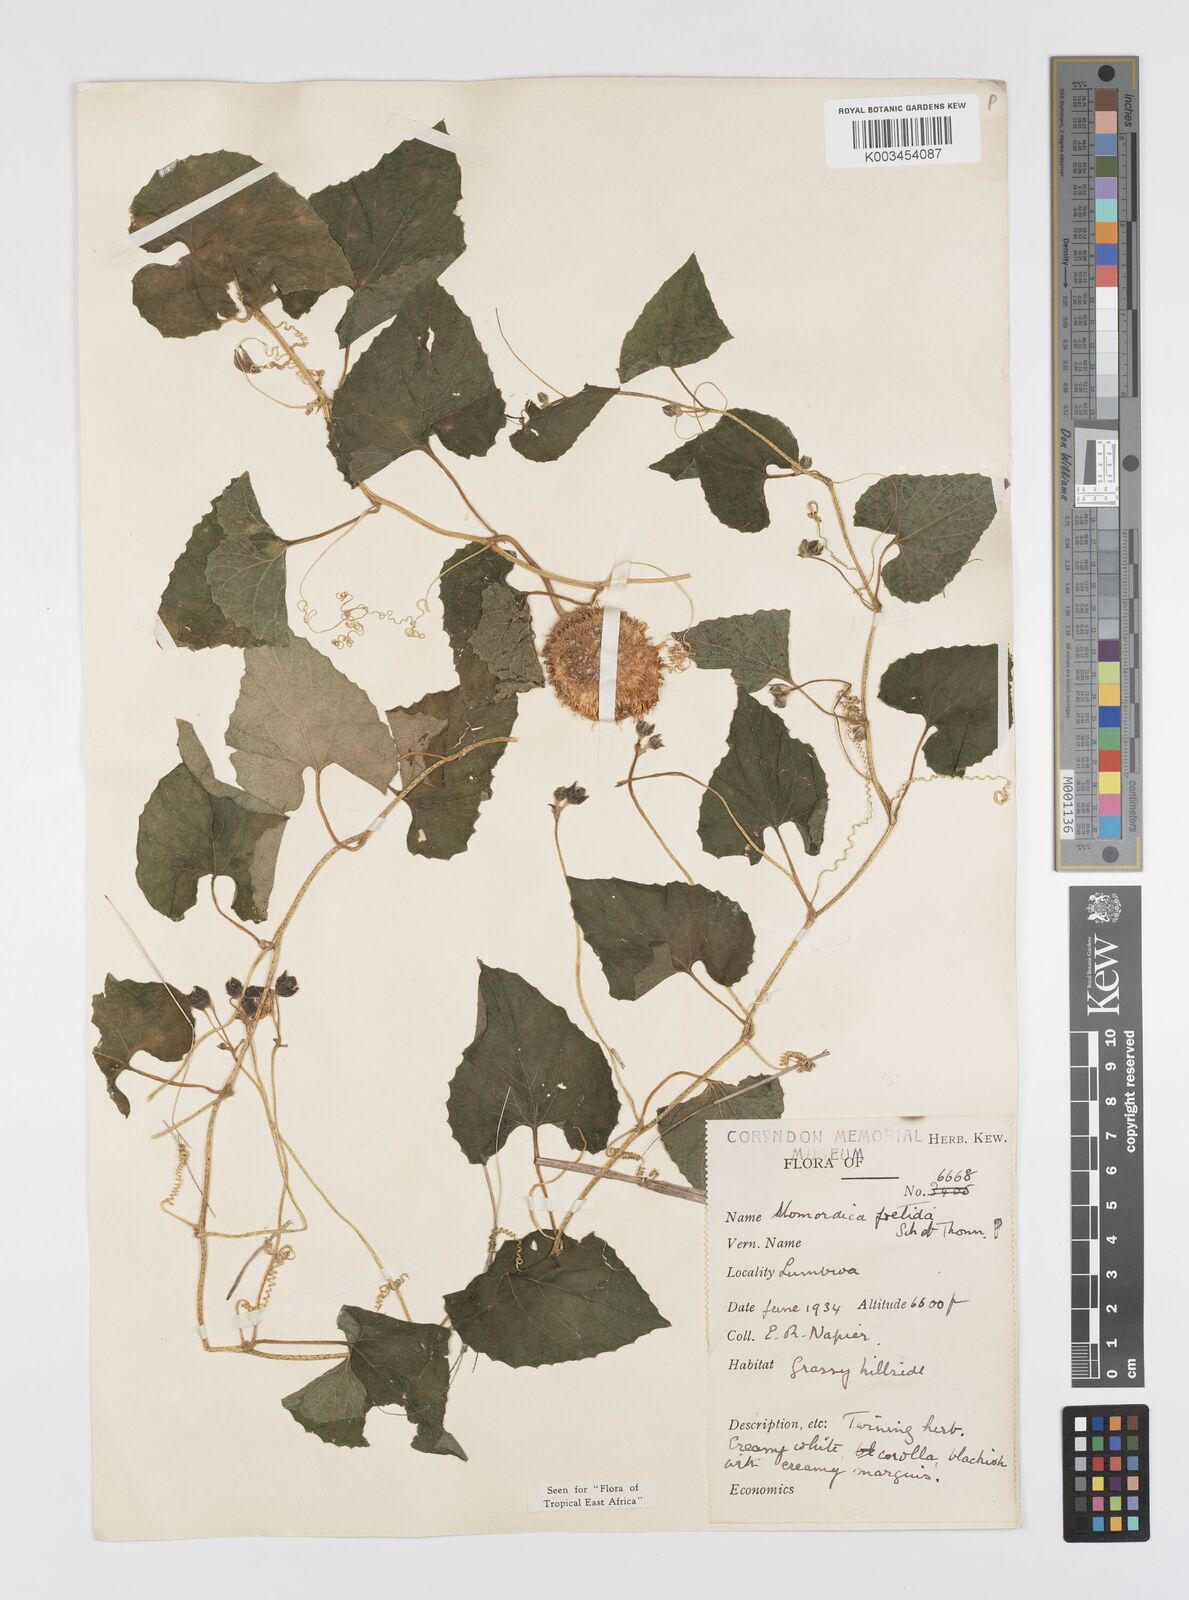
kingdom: Plantae
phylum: Tracheophyta
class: Magnoliopsida
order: Cucurbitales
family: Cucurbitaceae
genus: Momordica
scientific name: Momordica foetida
